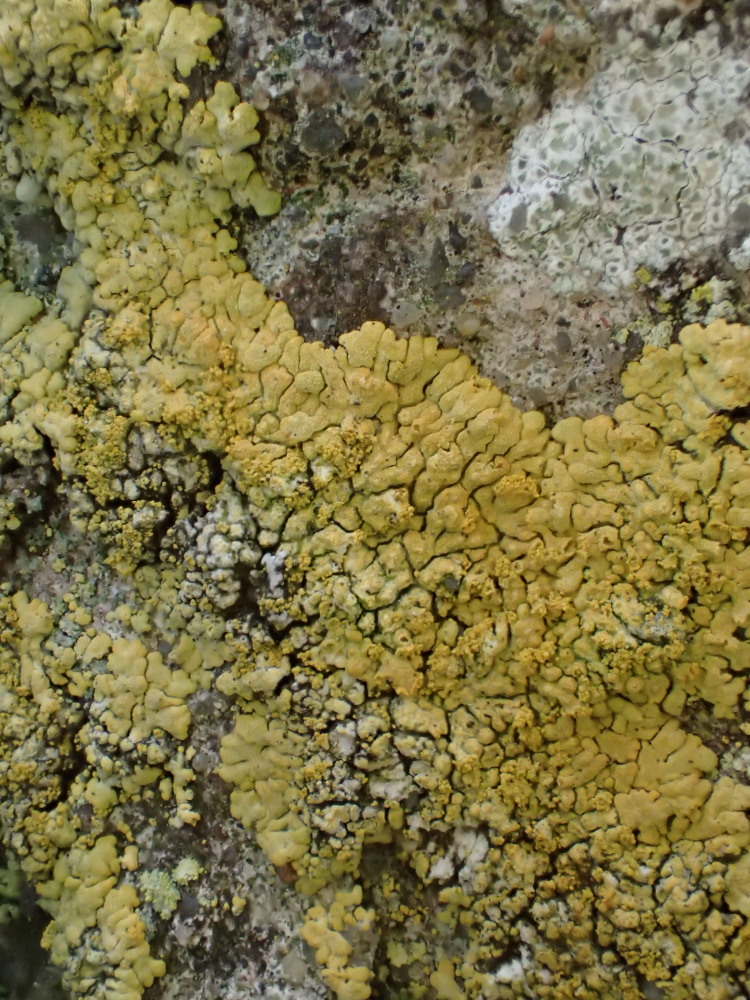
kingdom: Fungi
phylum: Ascomycota
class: Lecanoromycetes
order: Teloschistales
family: Teloschistaceae
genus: Calogaya
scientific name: Calogaya decipiens
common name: knudret orangelav
